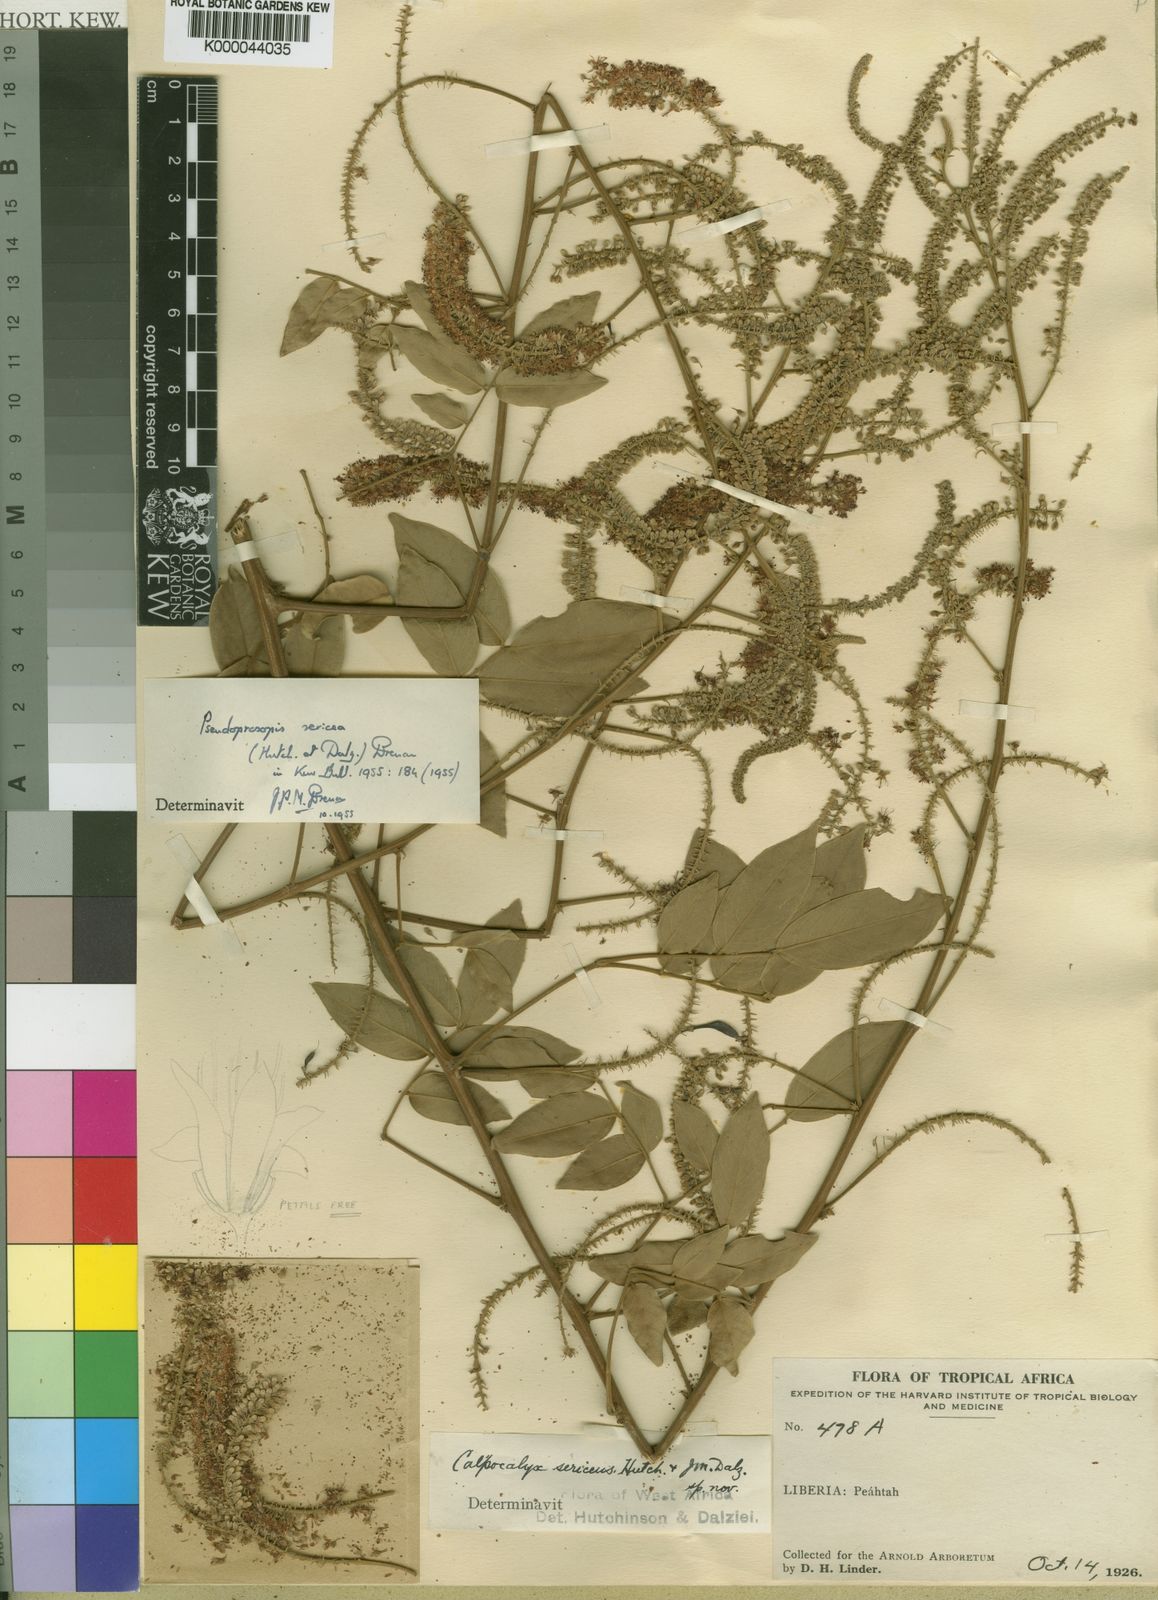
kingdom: Plantae
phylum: Tracheophyta
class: Magnoliopsida
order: Fabales
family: Fabaceae
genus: Pseudoprosopis
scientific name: Pseudoprosopis sericea
